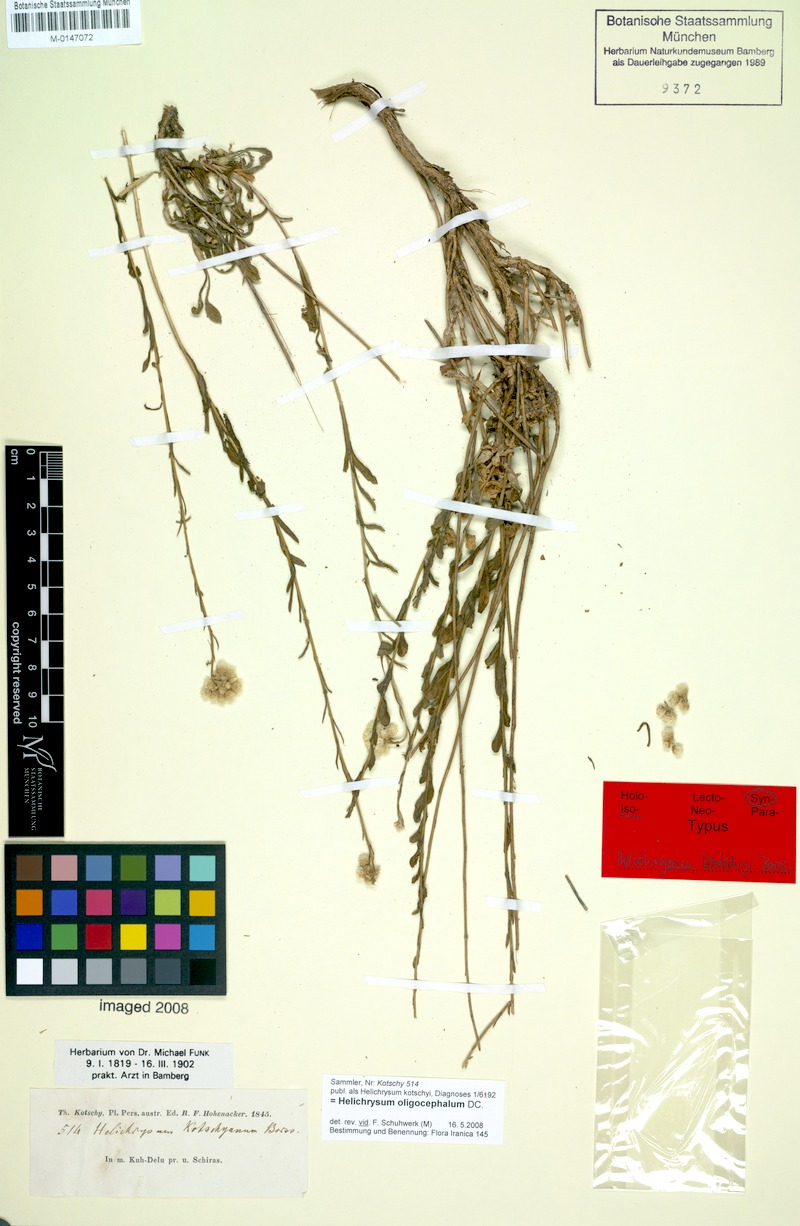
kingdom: Plantae
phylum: Tracheophyta
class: Magnoliopsida
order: Asterales
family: Asteraceae
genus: Helichrysum
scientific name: Helichrysum oligocephalum
